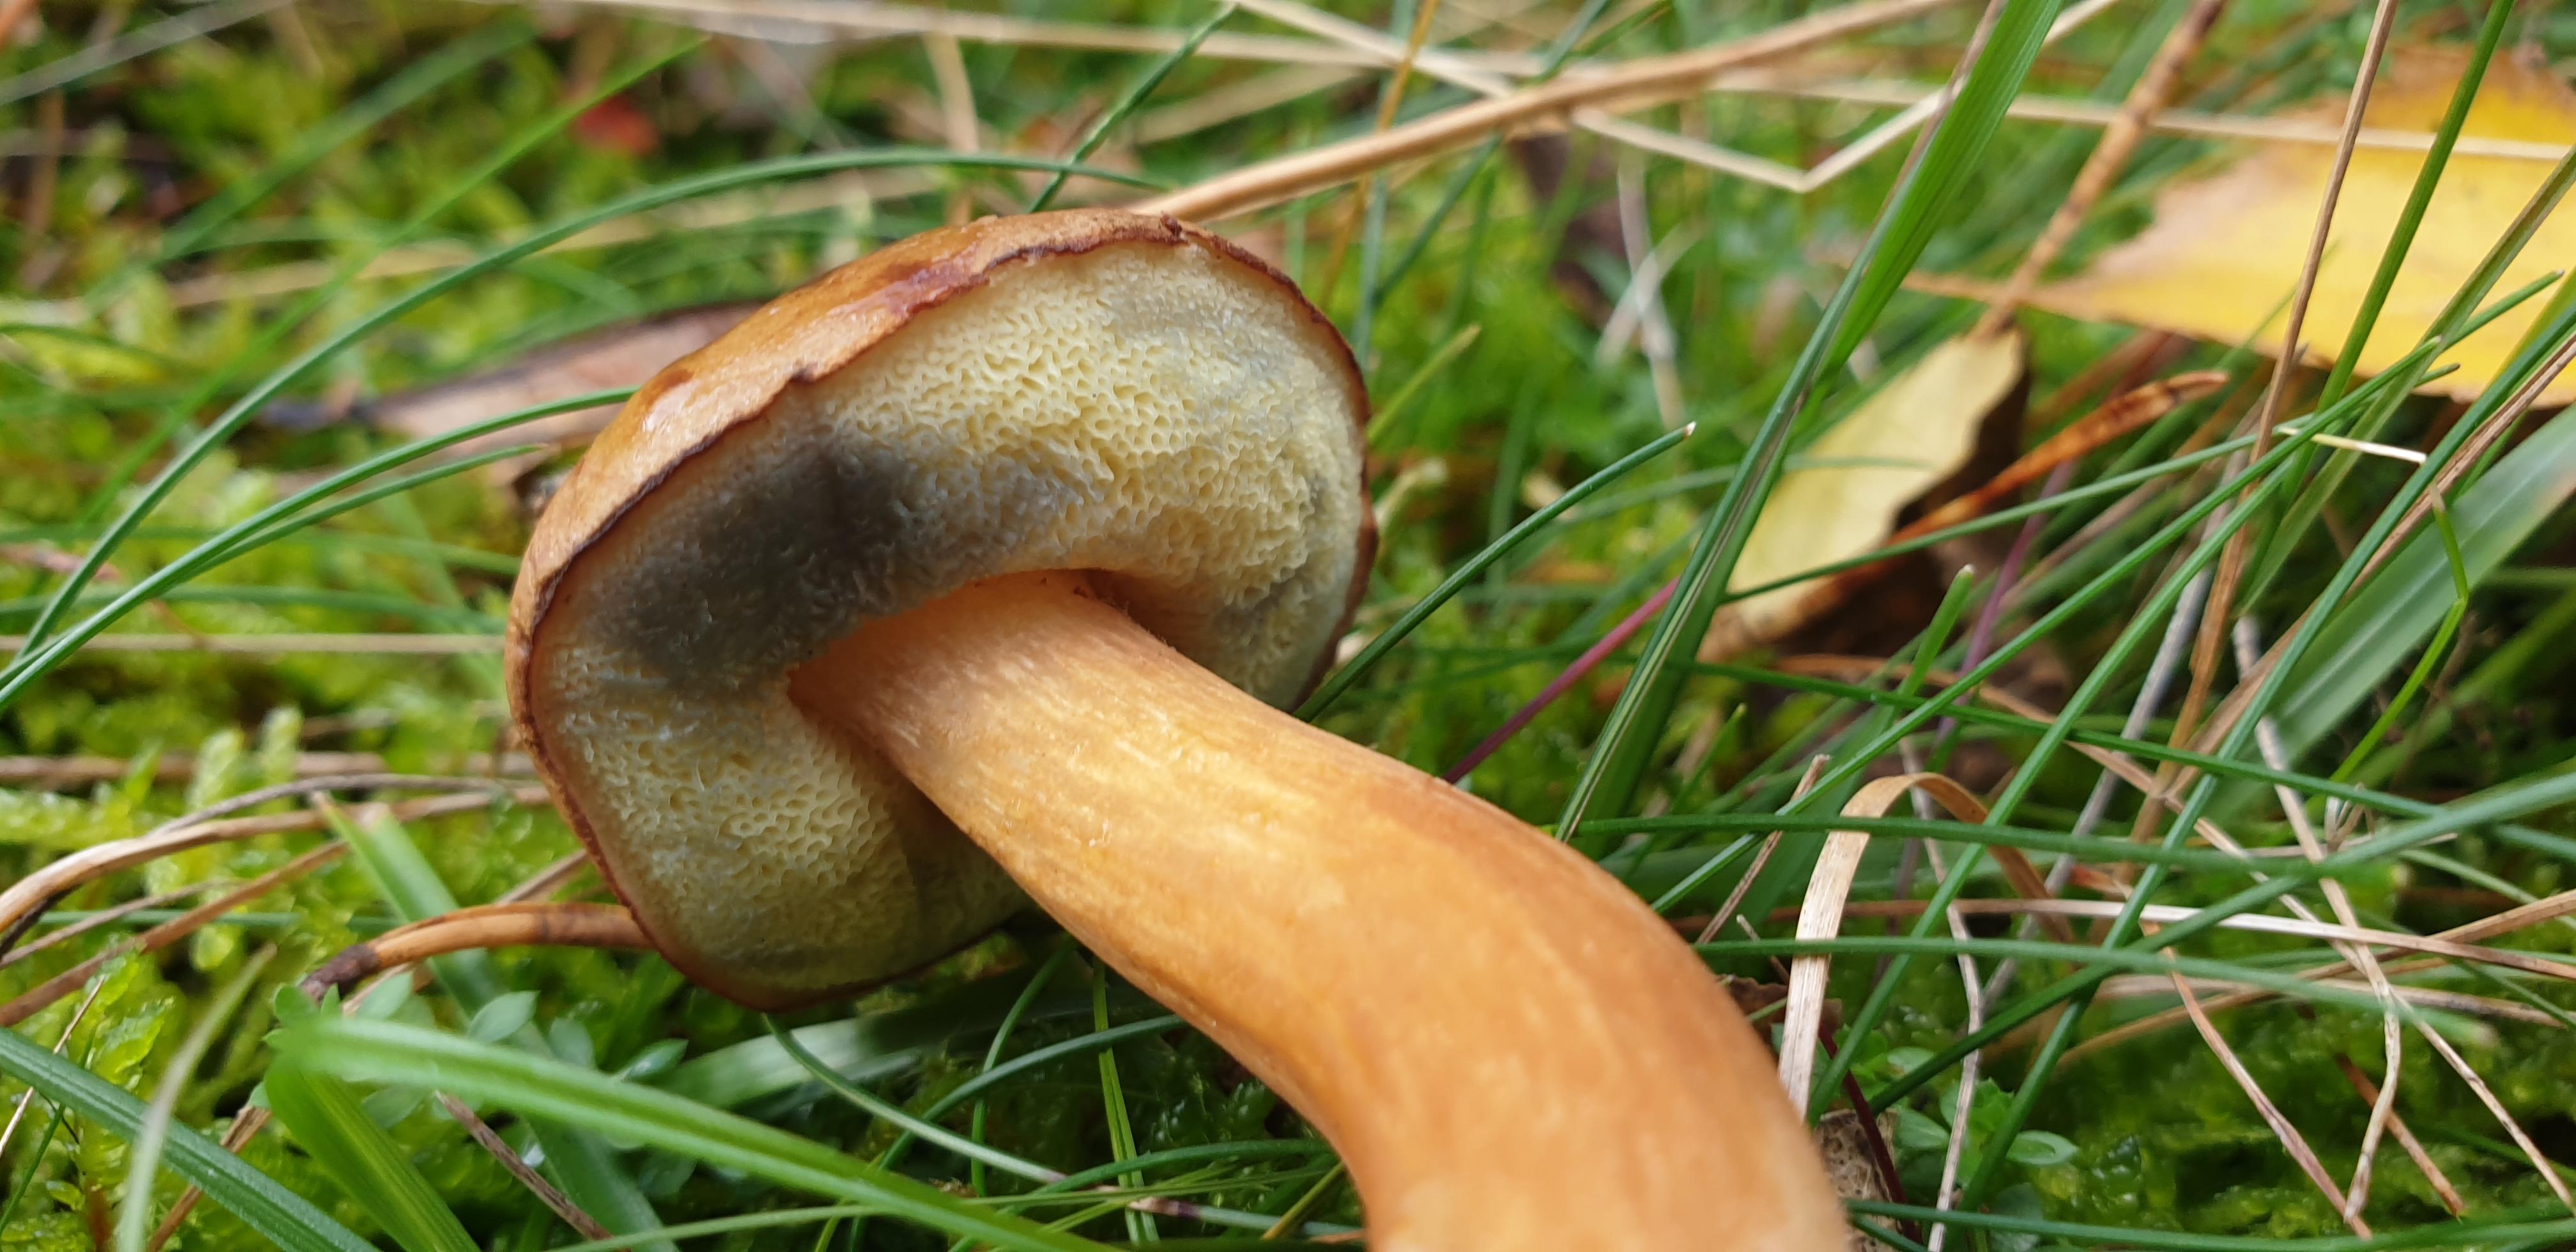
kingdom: Fungi
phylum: Basidiomycota
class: Agaricomycetes
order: Boletales
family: Boletaceae
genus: Imleria
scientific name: Imleria badia
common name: brunstokket rørhat
